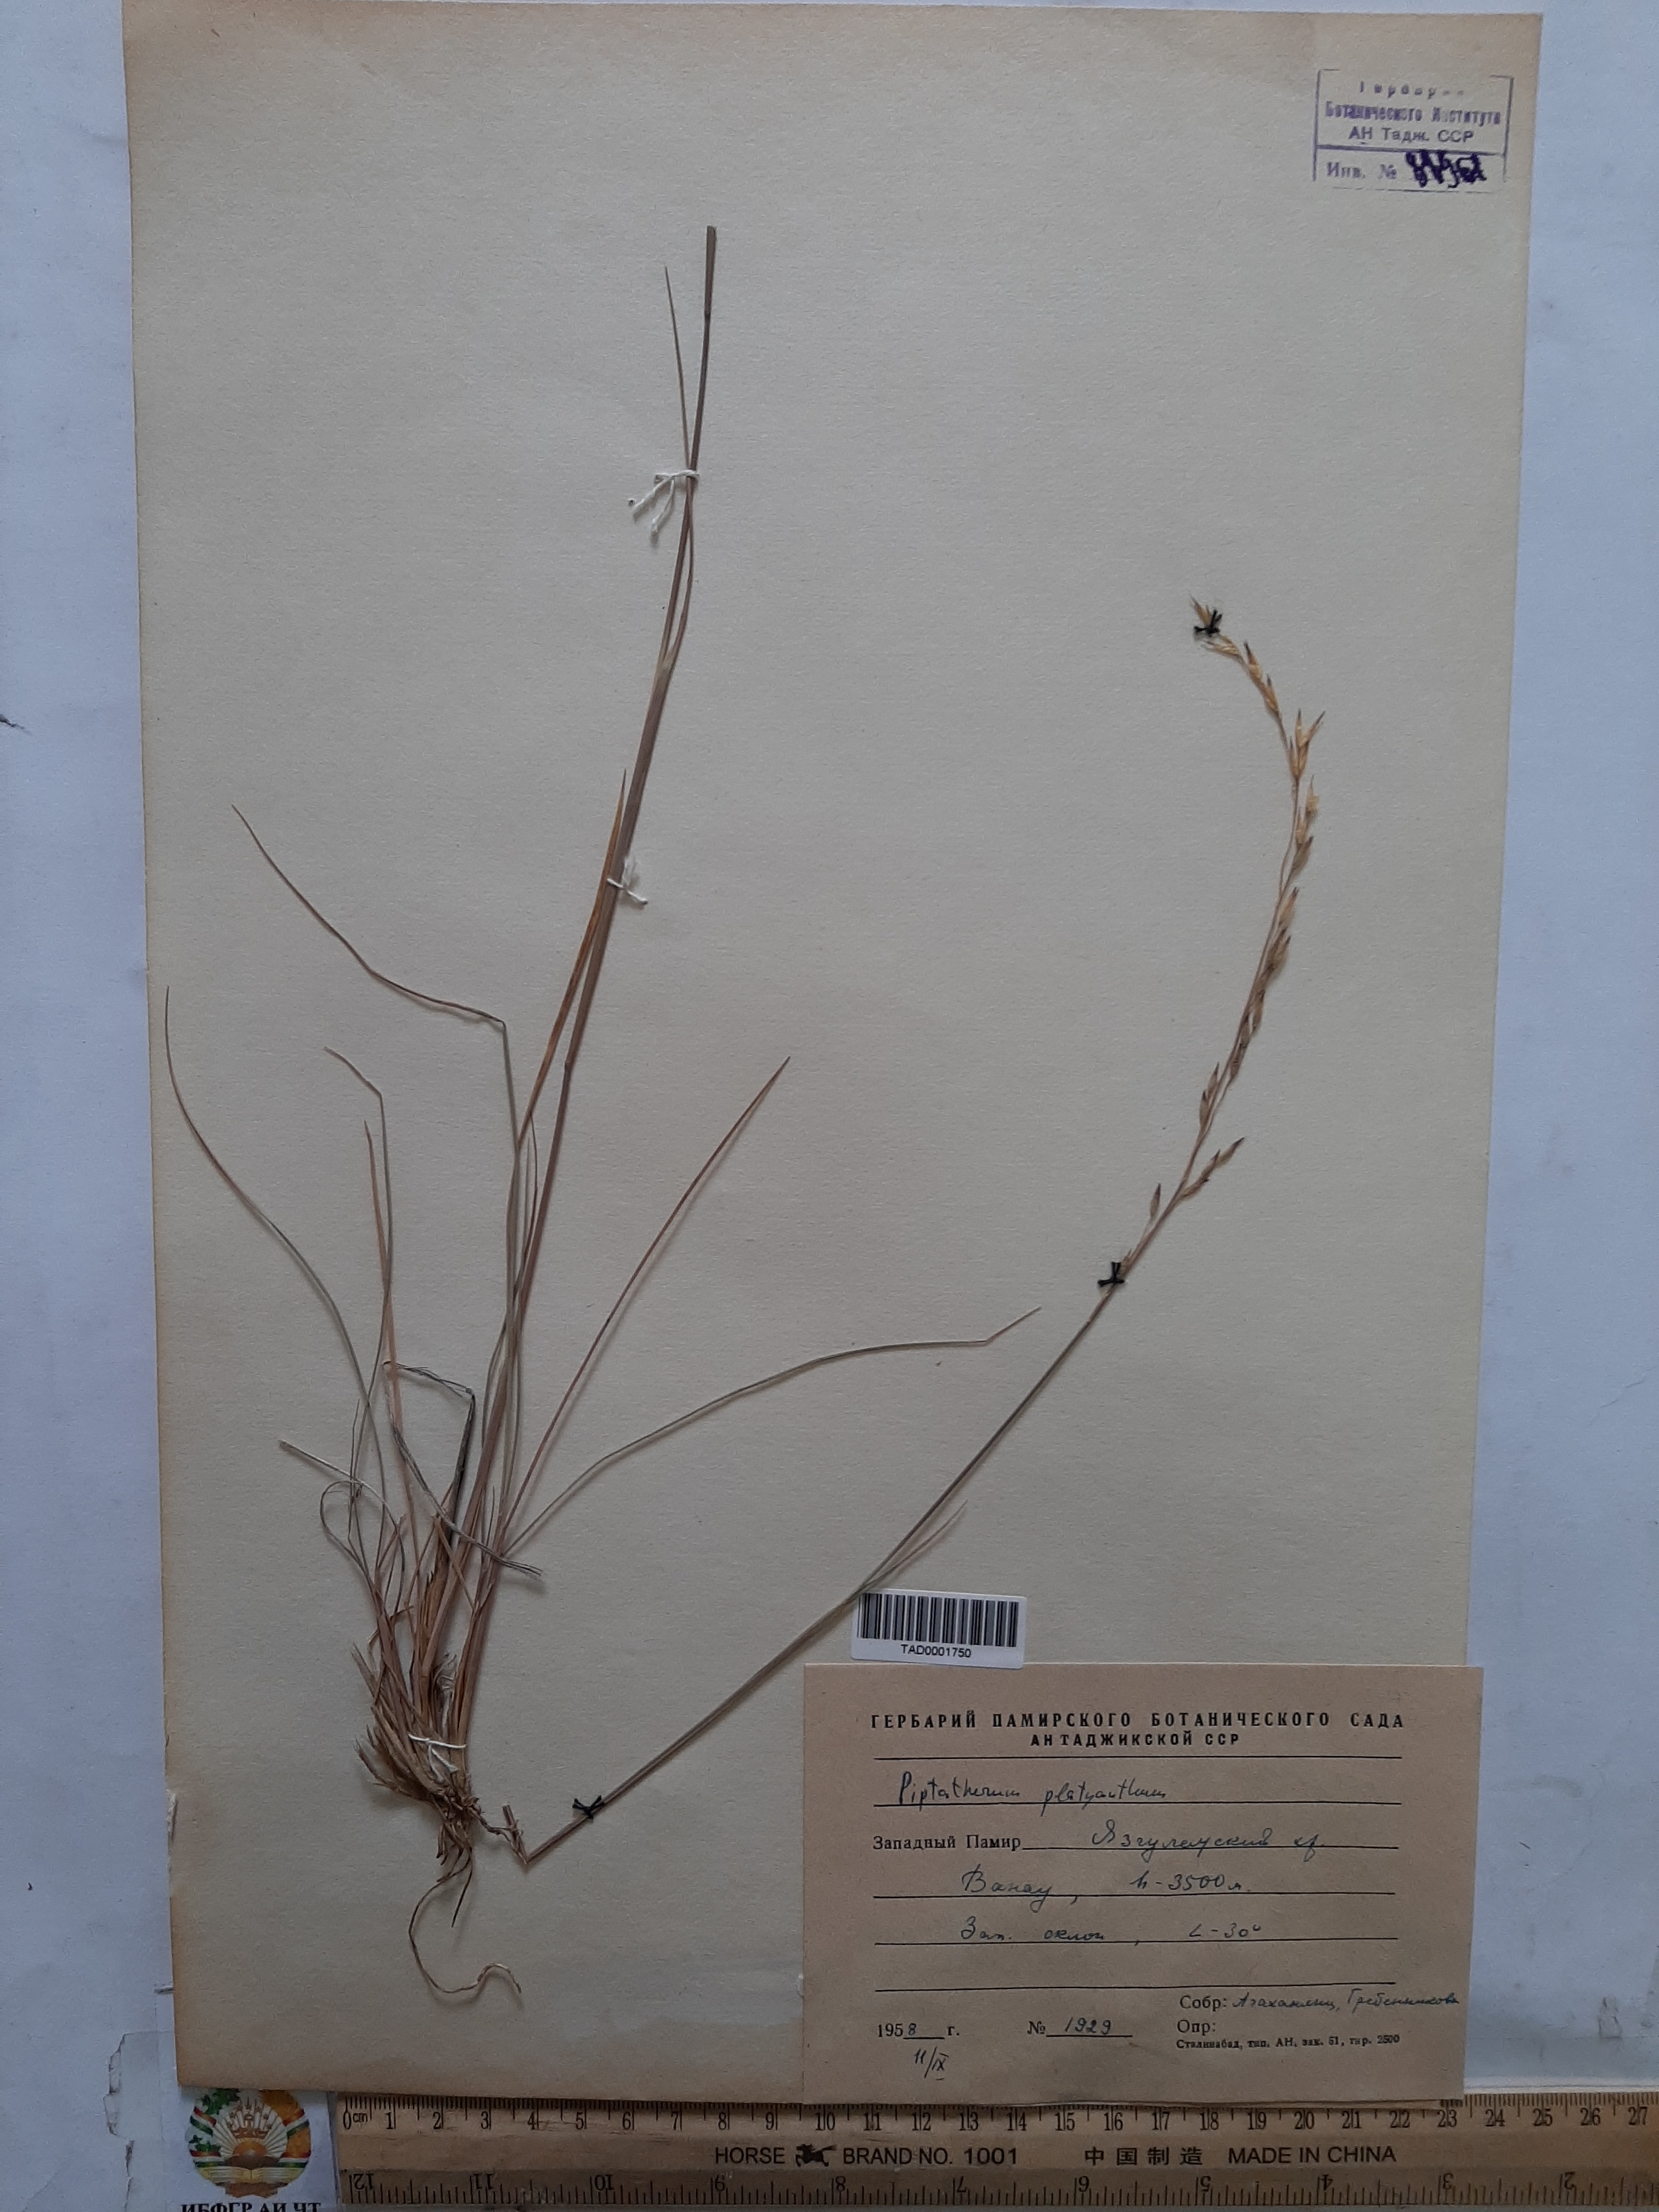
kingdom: Plantae
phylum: Tracheophyta
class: Liliopsida
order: Poales
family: Poaceae
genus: Piptatherum
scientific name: Piptatherum platyanthum
